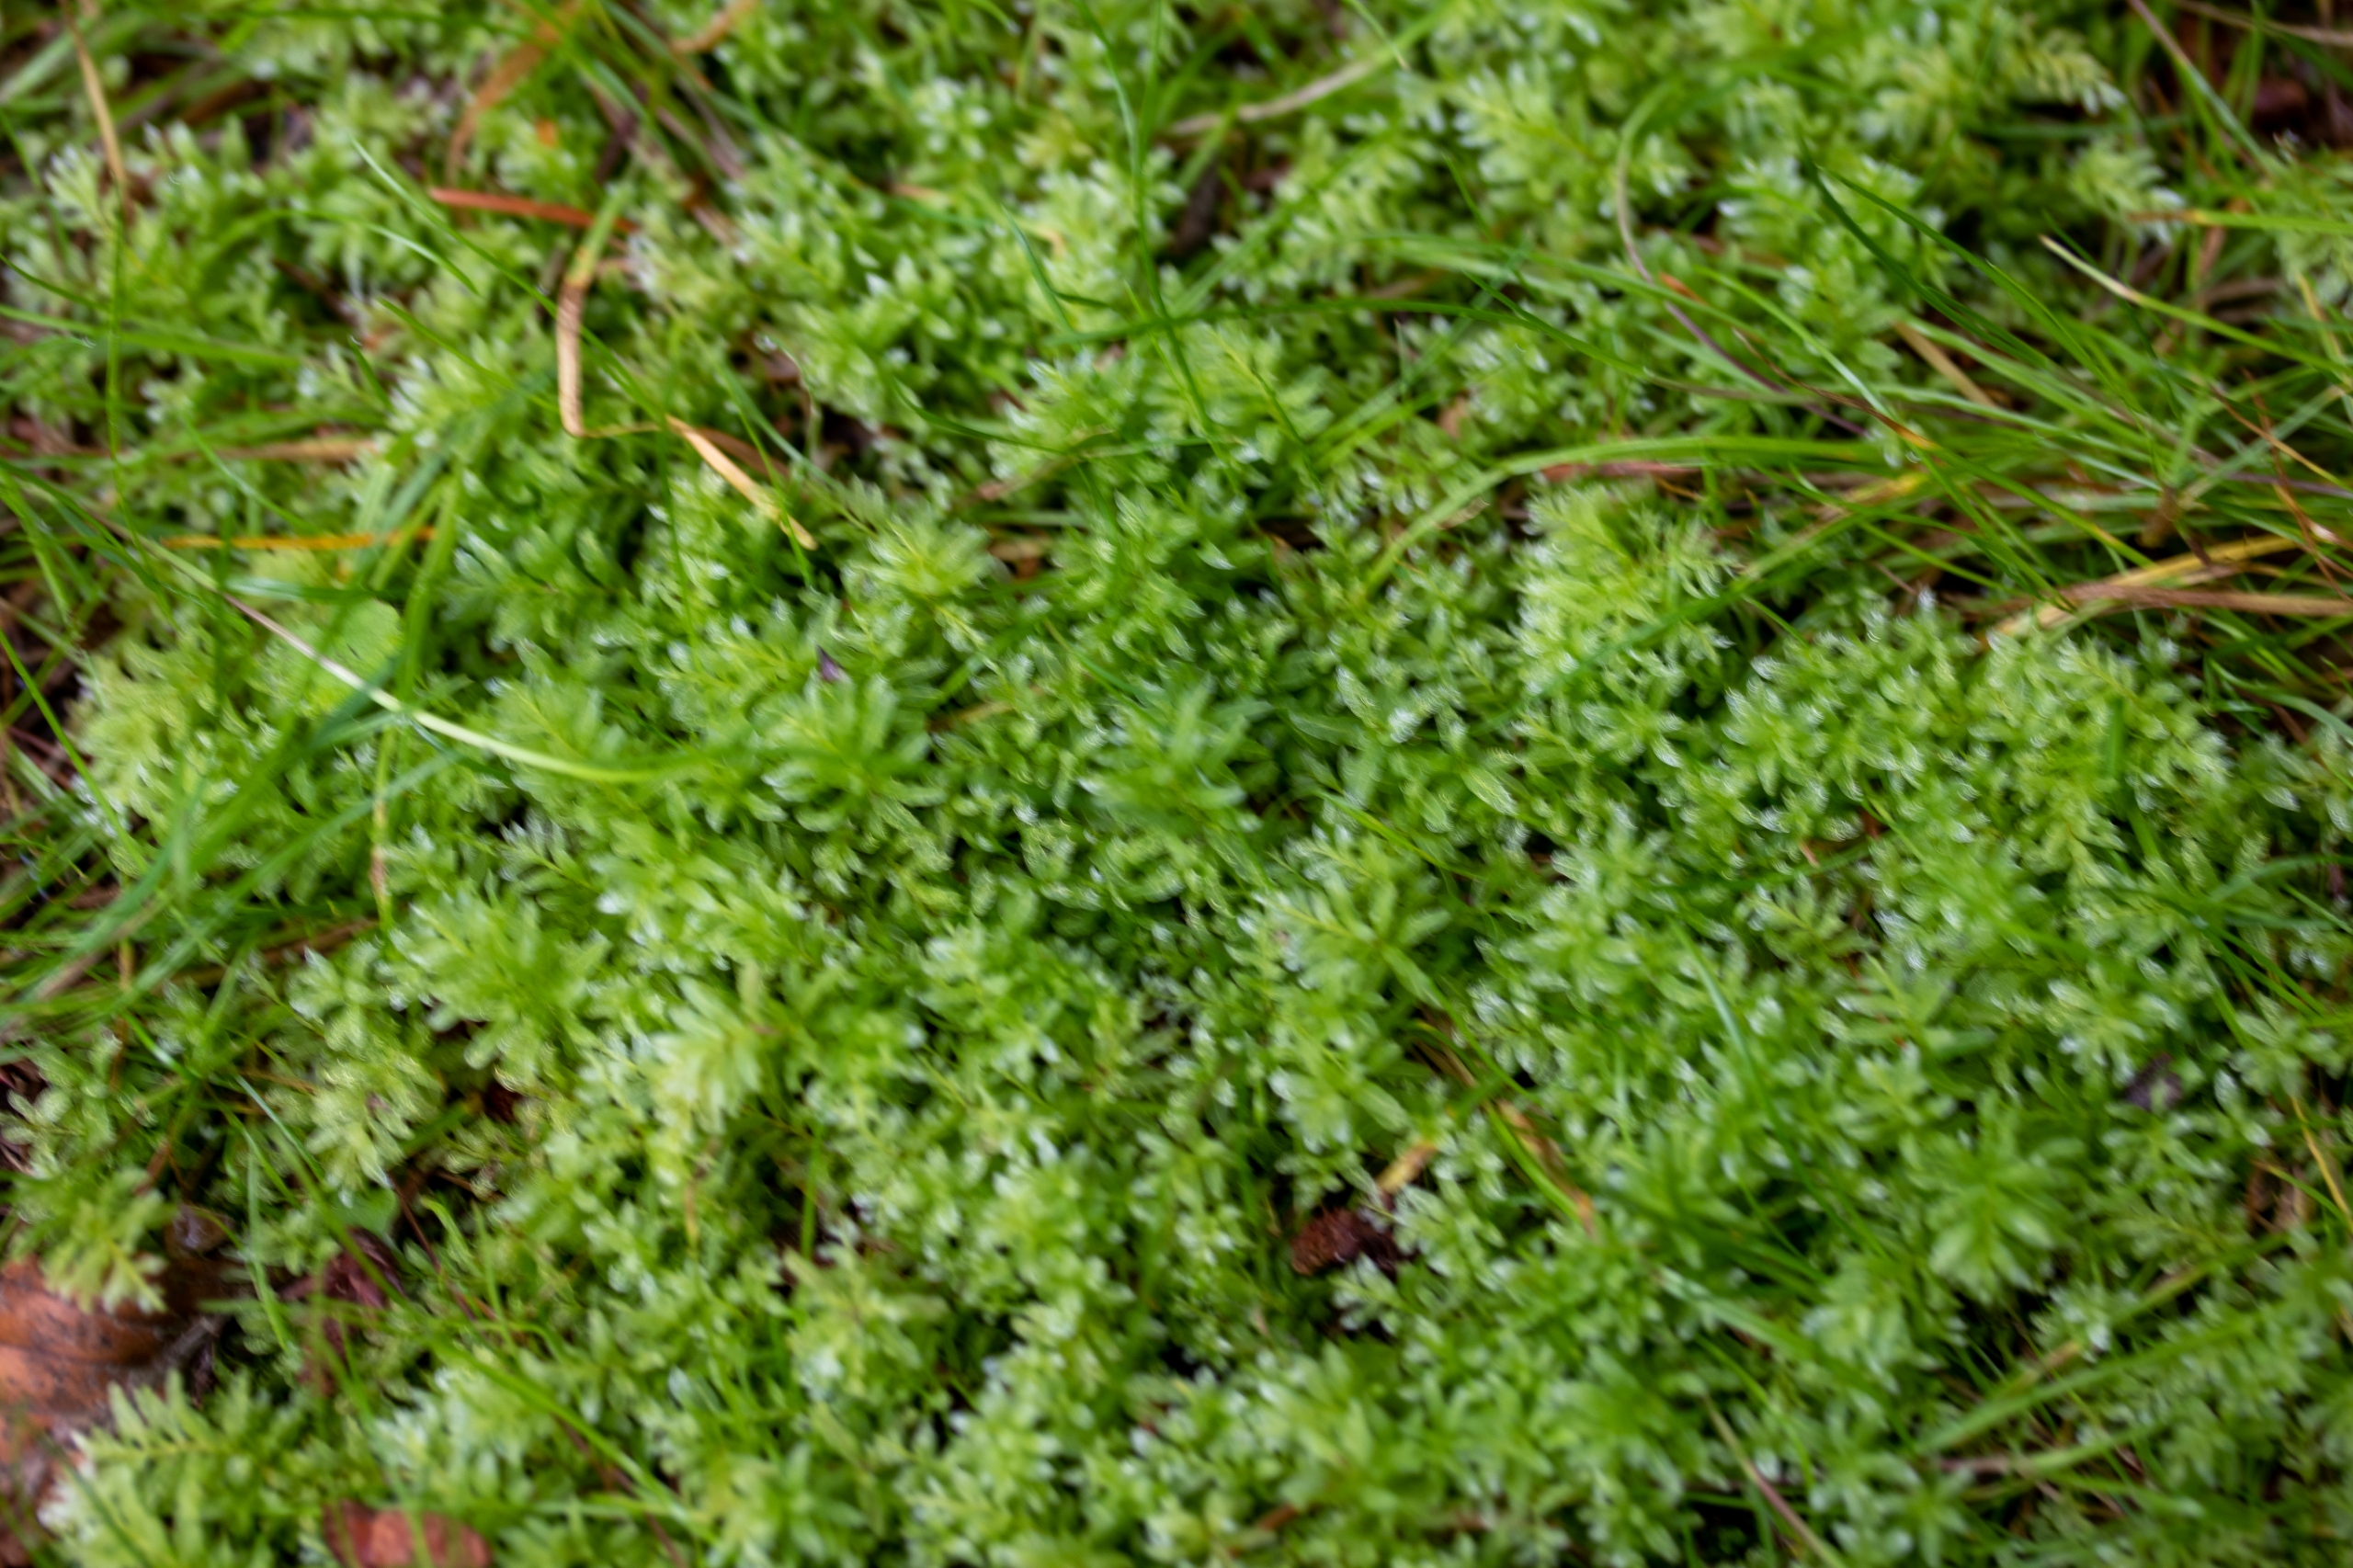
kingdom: Plantae
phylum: Bryophyta
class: Bryopsida
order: Bryales
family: Mniaceae
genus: Plagiomnium
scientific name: Plagiomnium undulatum
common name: Bølget krybstjerne
